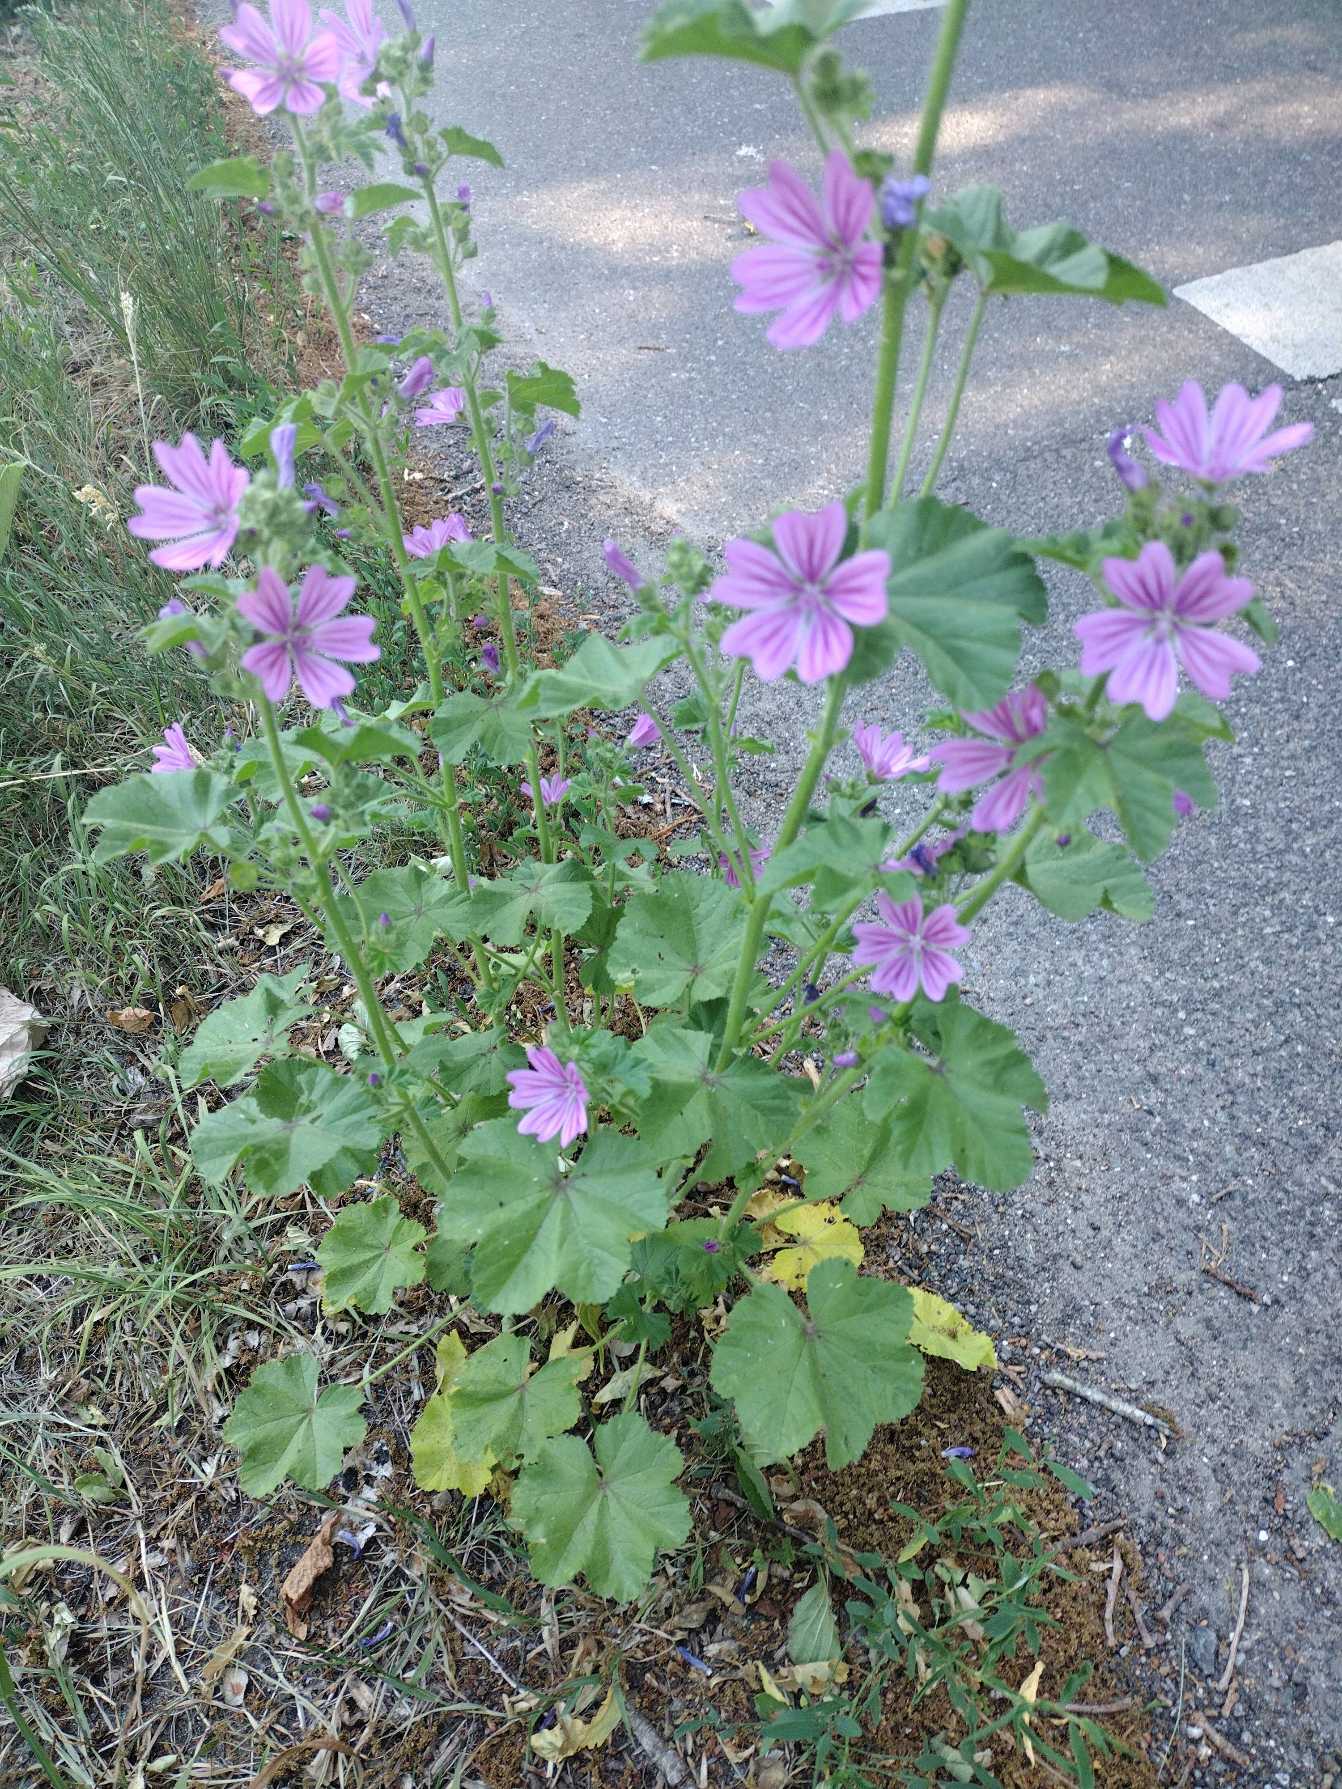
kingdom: Plantae
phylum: Tracheophyta
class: Magnoliopsida
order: Malvales
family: Malvaceae
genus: Malva
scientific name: Malva sylvestris
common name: Almindelig katost
